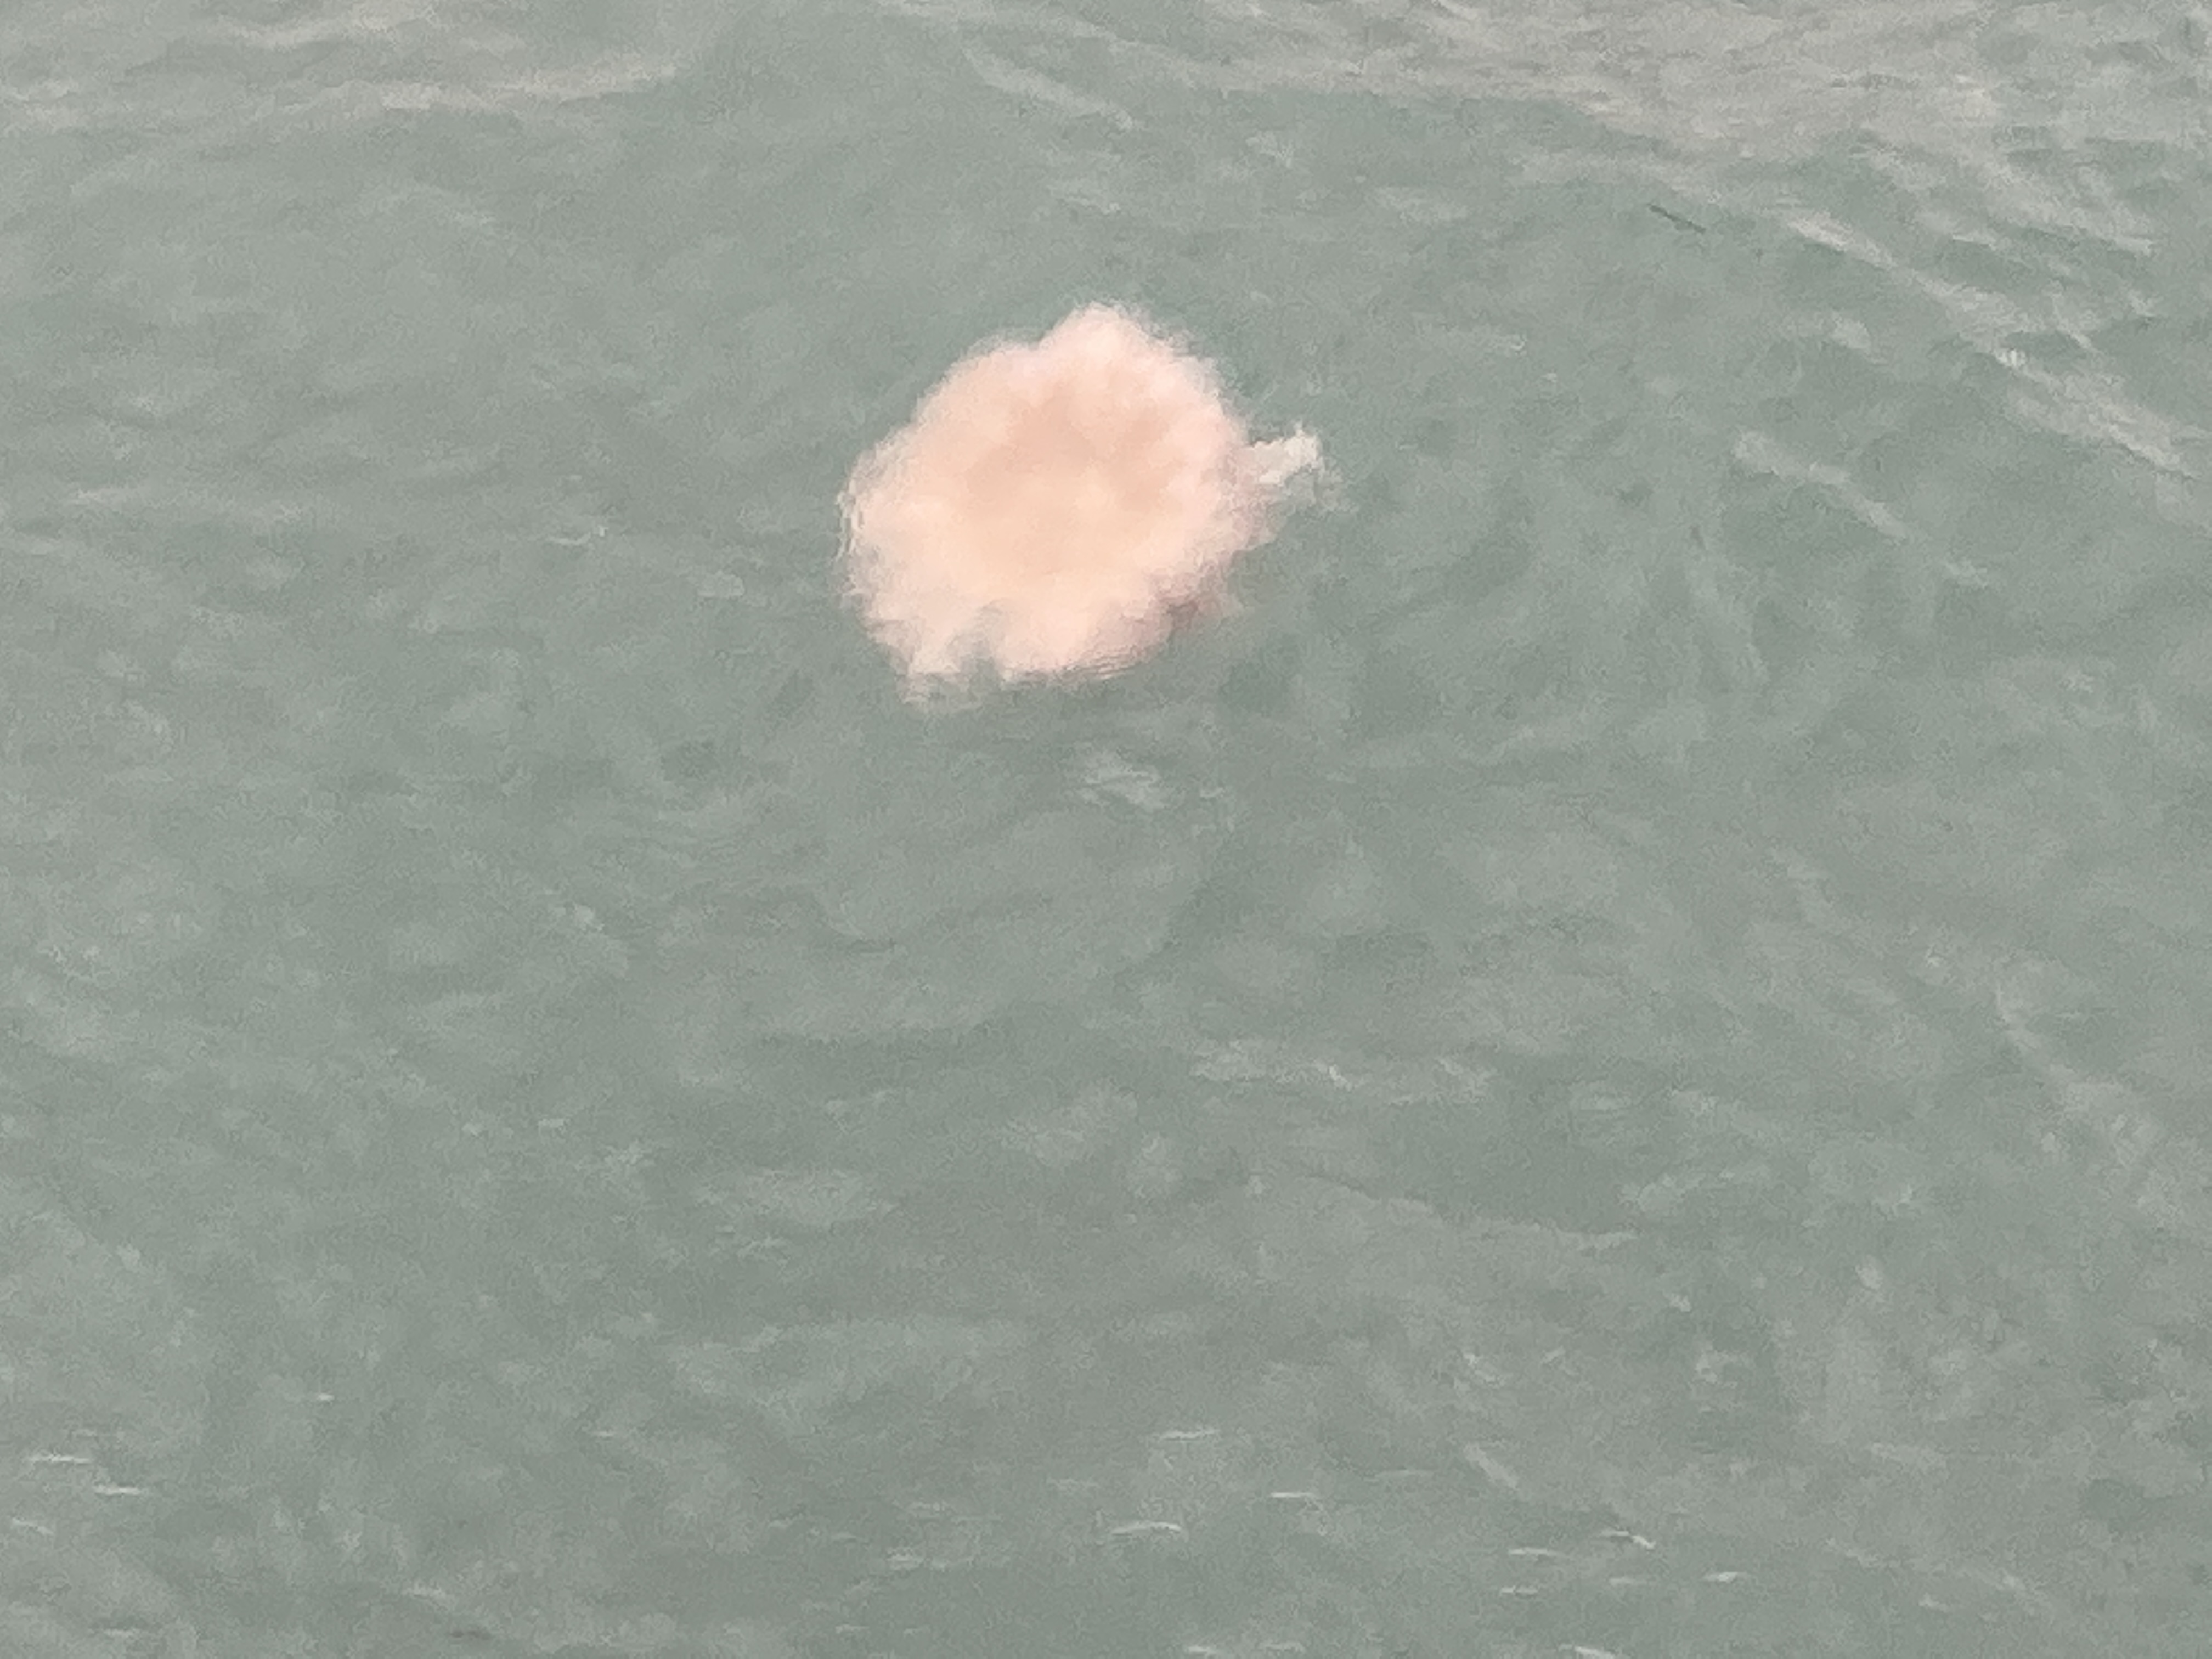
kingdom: Animalia
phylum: Cnidaria
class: Scyphozoa
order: Semaeostomeae
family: Cyaneidae
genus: Cyanea
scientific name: Cyanea nozakii
